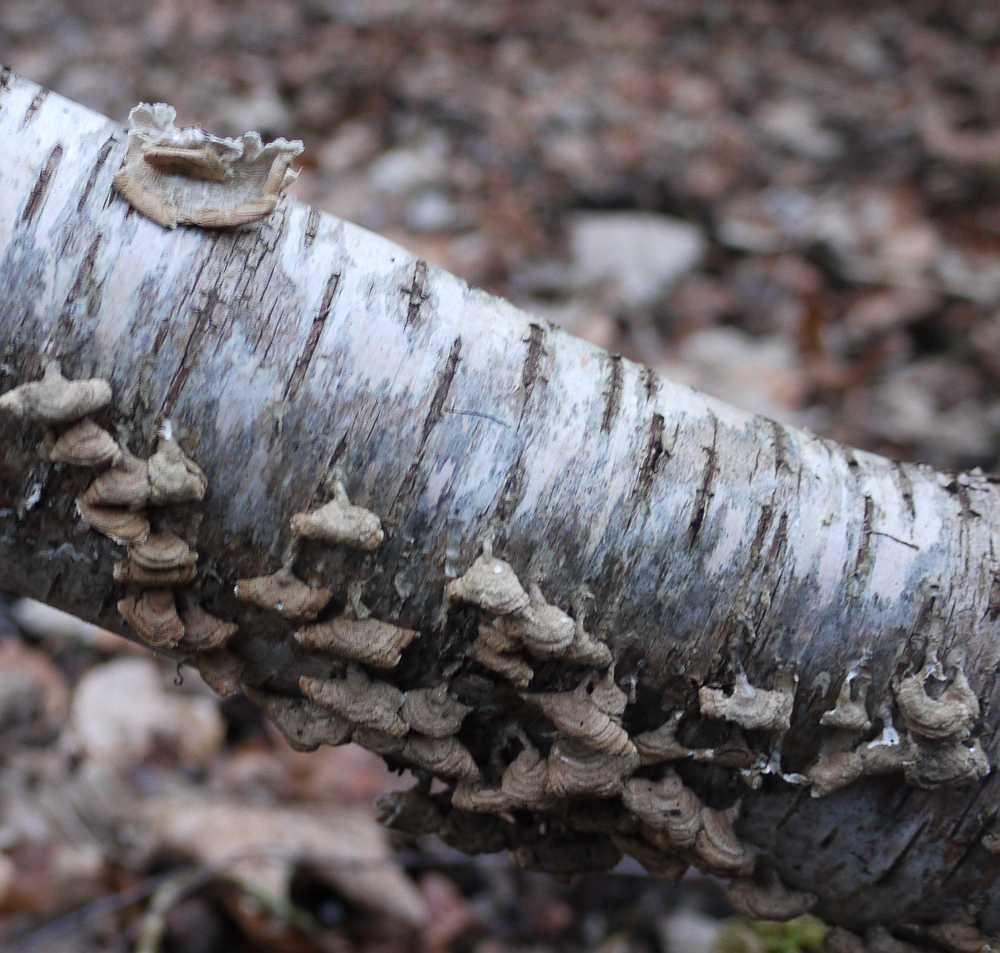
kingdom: Fungi
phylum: Basidiomycota
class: Agaricomycetes
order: Amylocorticiales
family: Amylocorticiaceae
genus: Plicaturopsis
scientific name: Plicaturopsis crispa
